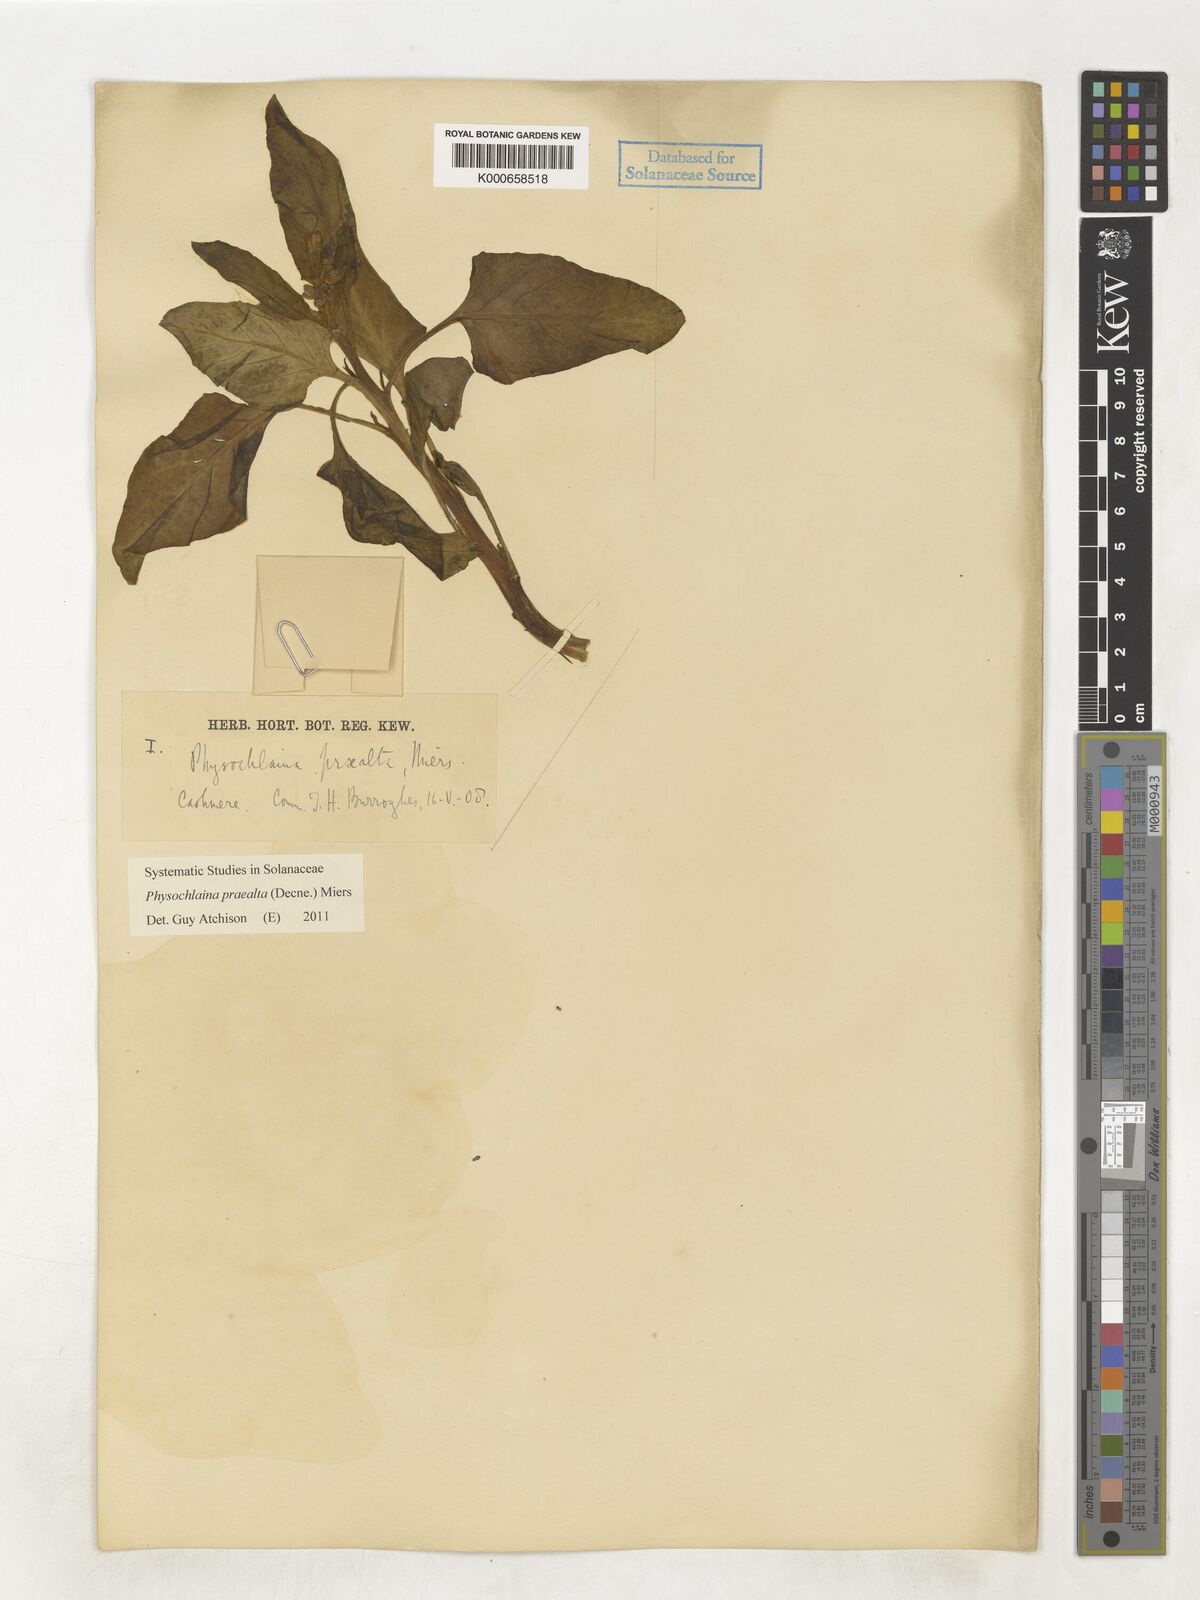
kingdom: Plantae
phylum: Tracheophyta
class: Magnoliopsida
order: Solanales
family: Solanaceae
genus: Physochlaina
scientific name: Physochlaina praealta
